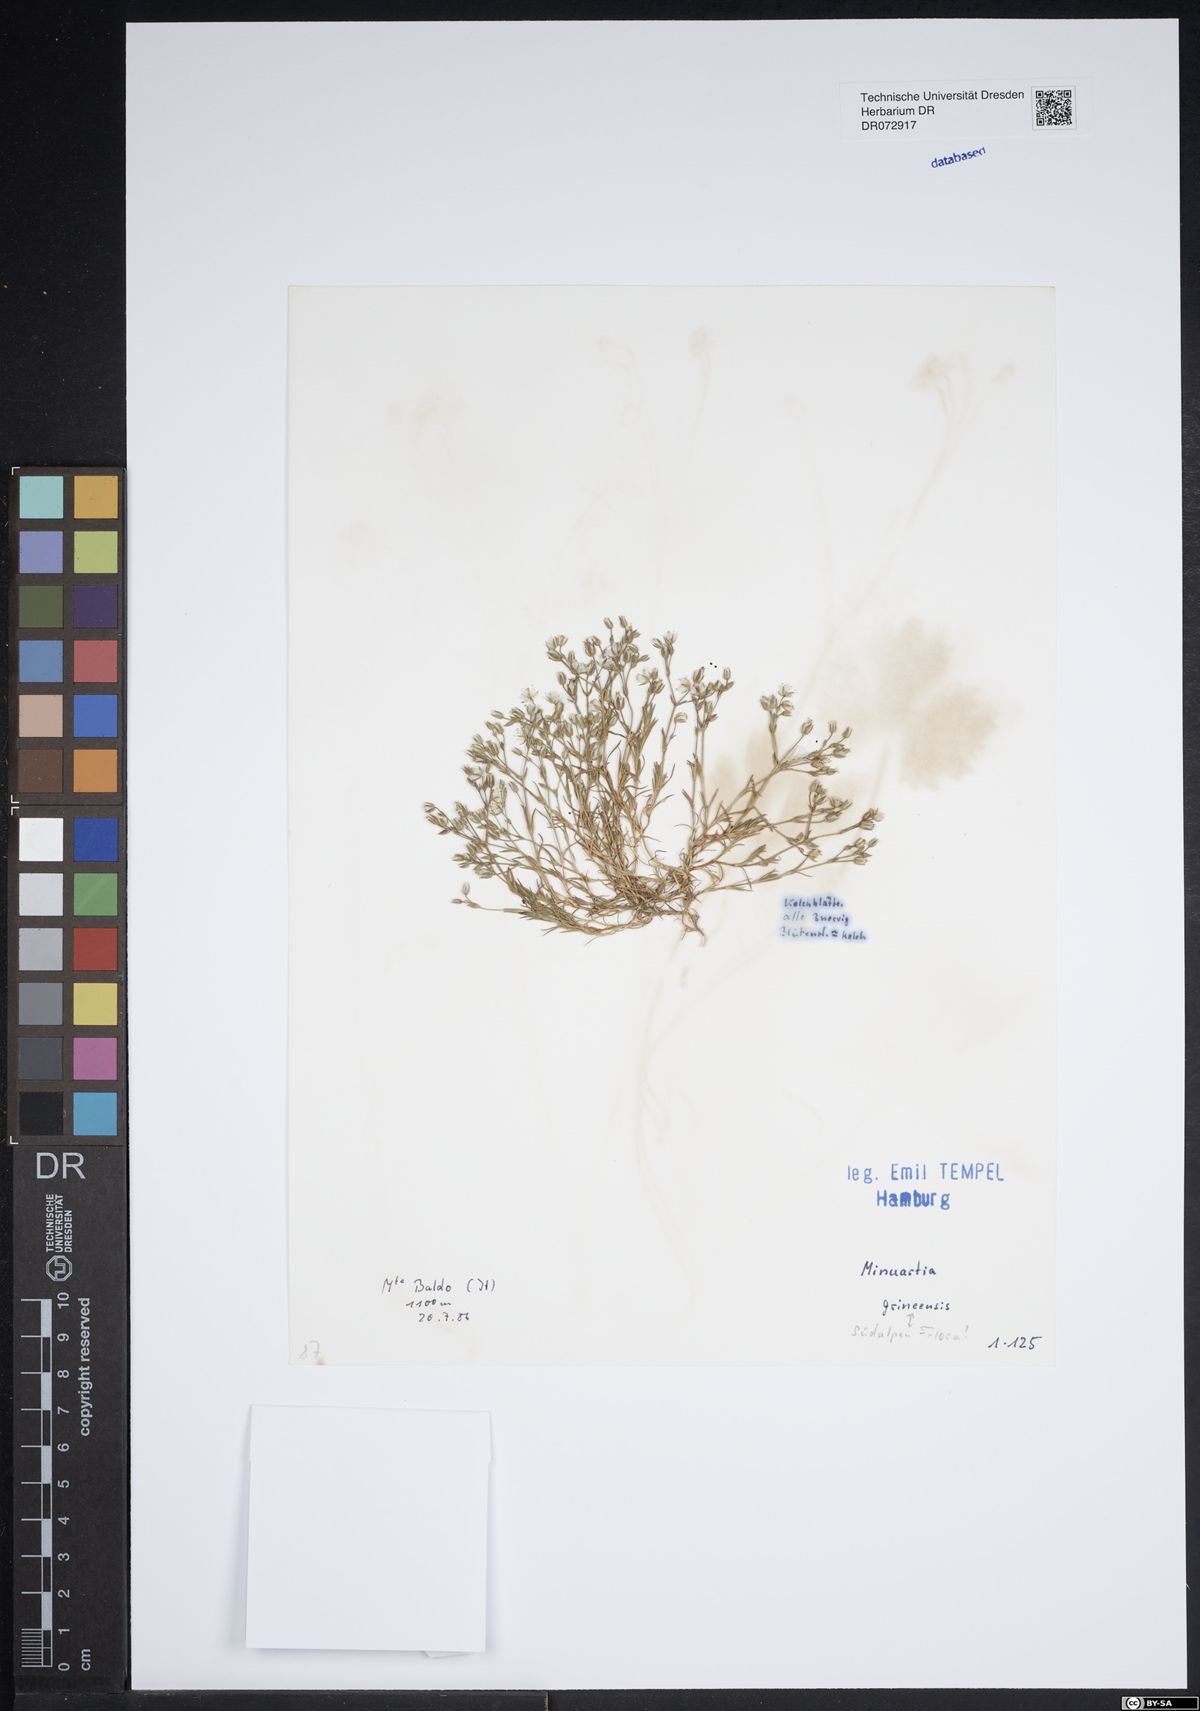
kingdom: Plantae
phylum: Tracheophyta
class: Magnoliopsida
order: Caryophyllales
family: Caryophyllaceae
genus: Minuartia
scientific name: Minuartia grineensis
